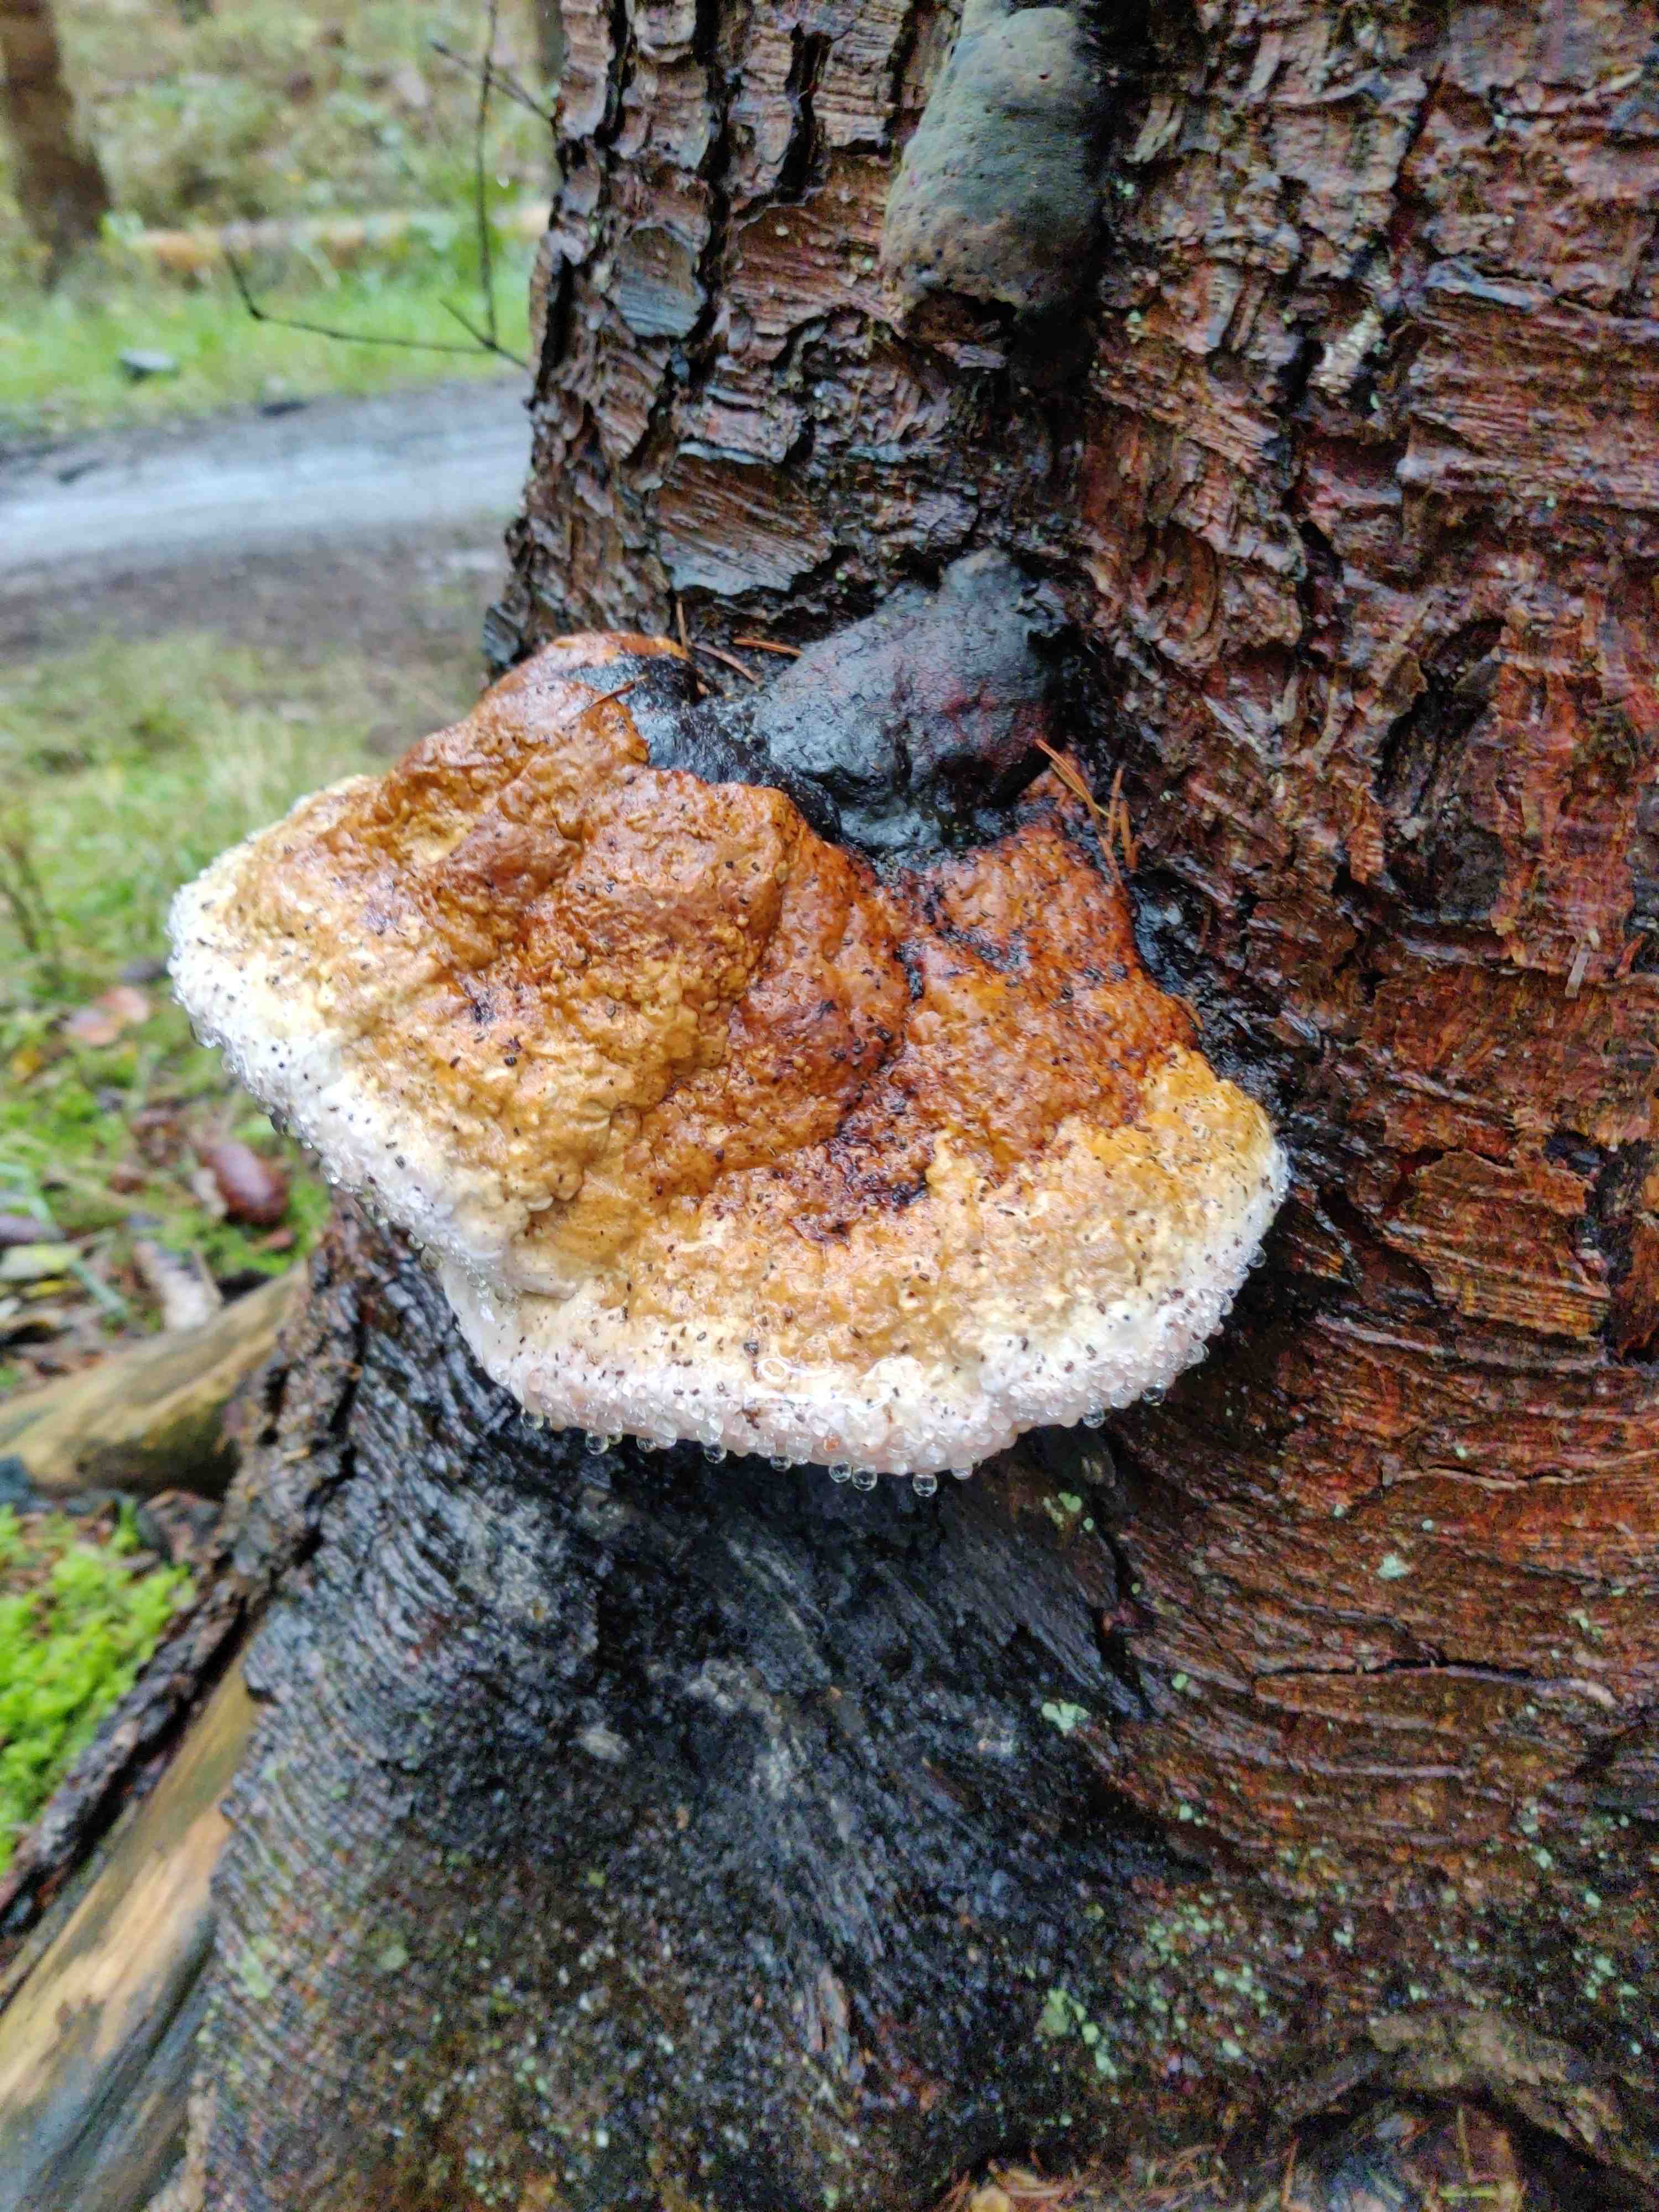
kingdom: Fungi
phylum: Basidiomycota
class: Agaricomycetes
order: Polyporales
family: Fomitopsidaceae
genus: Fomitopsis
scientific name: Fomitopsis pinicola
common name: randbæltet hovporesvamp
